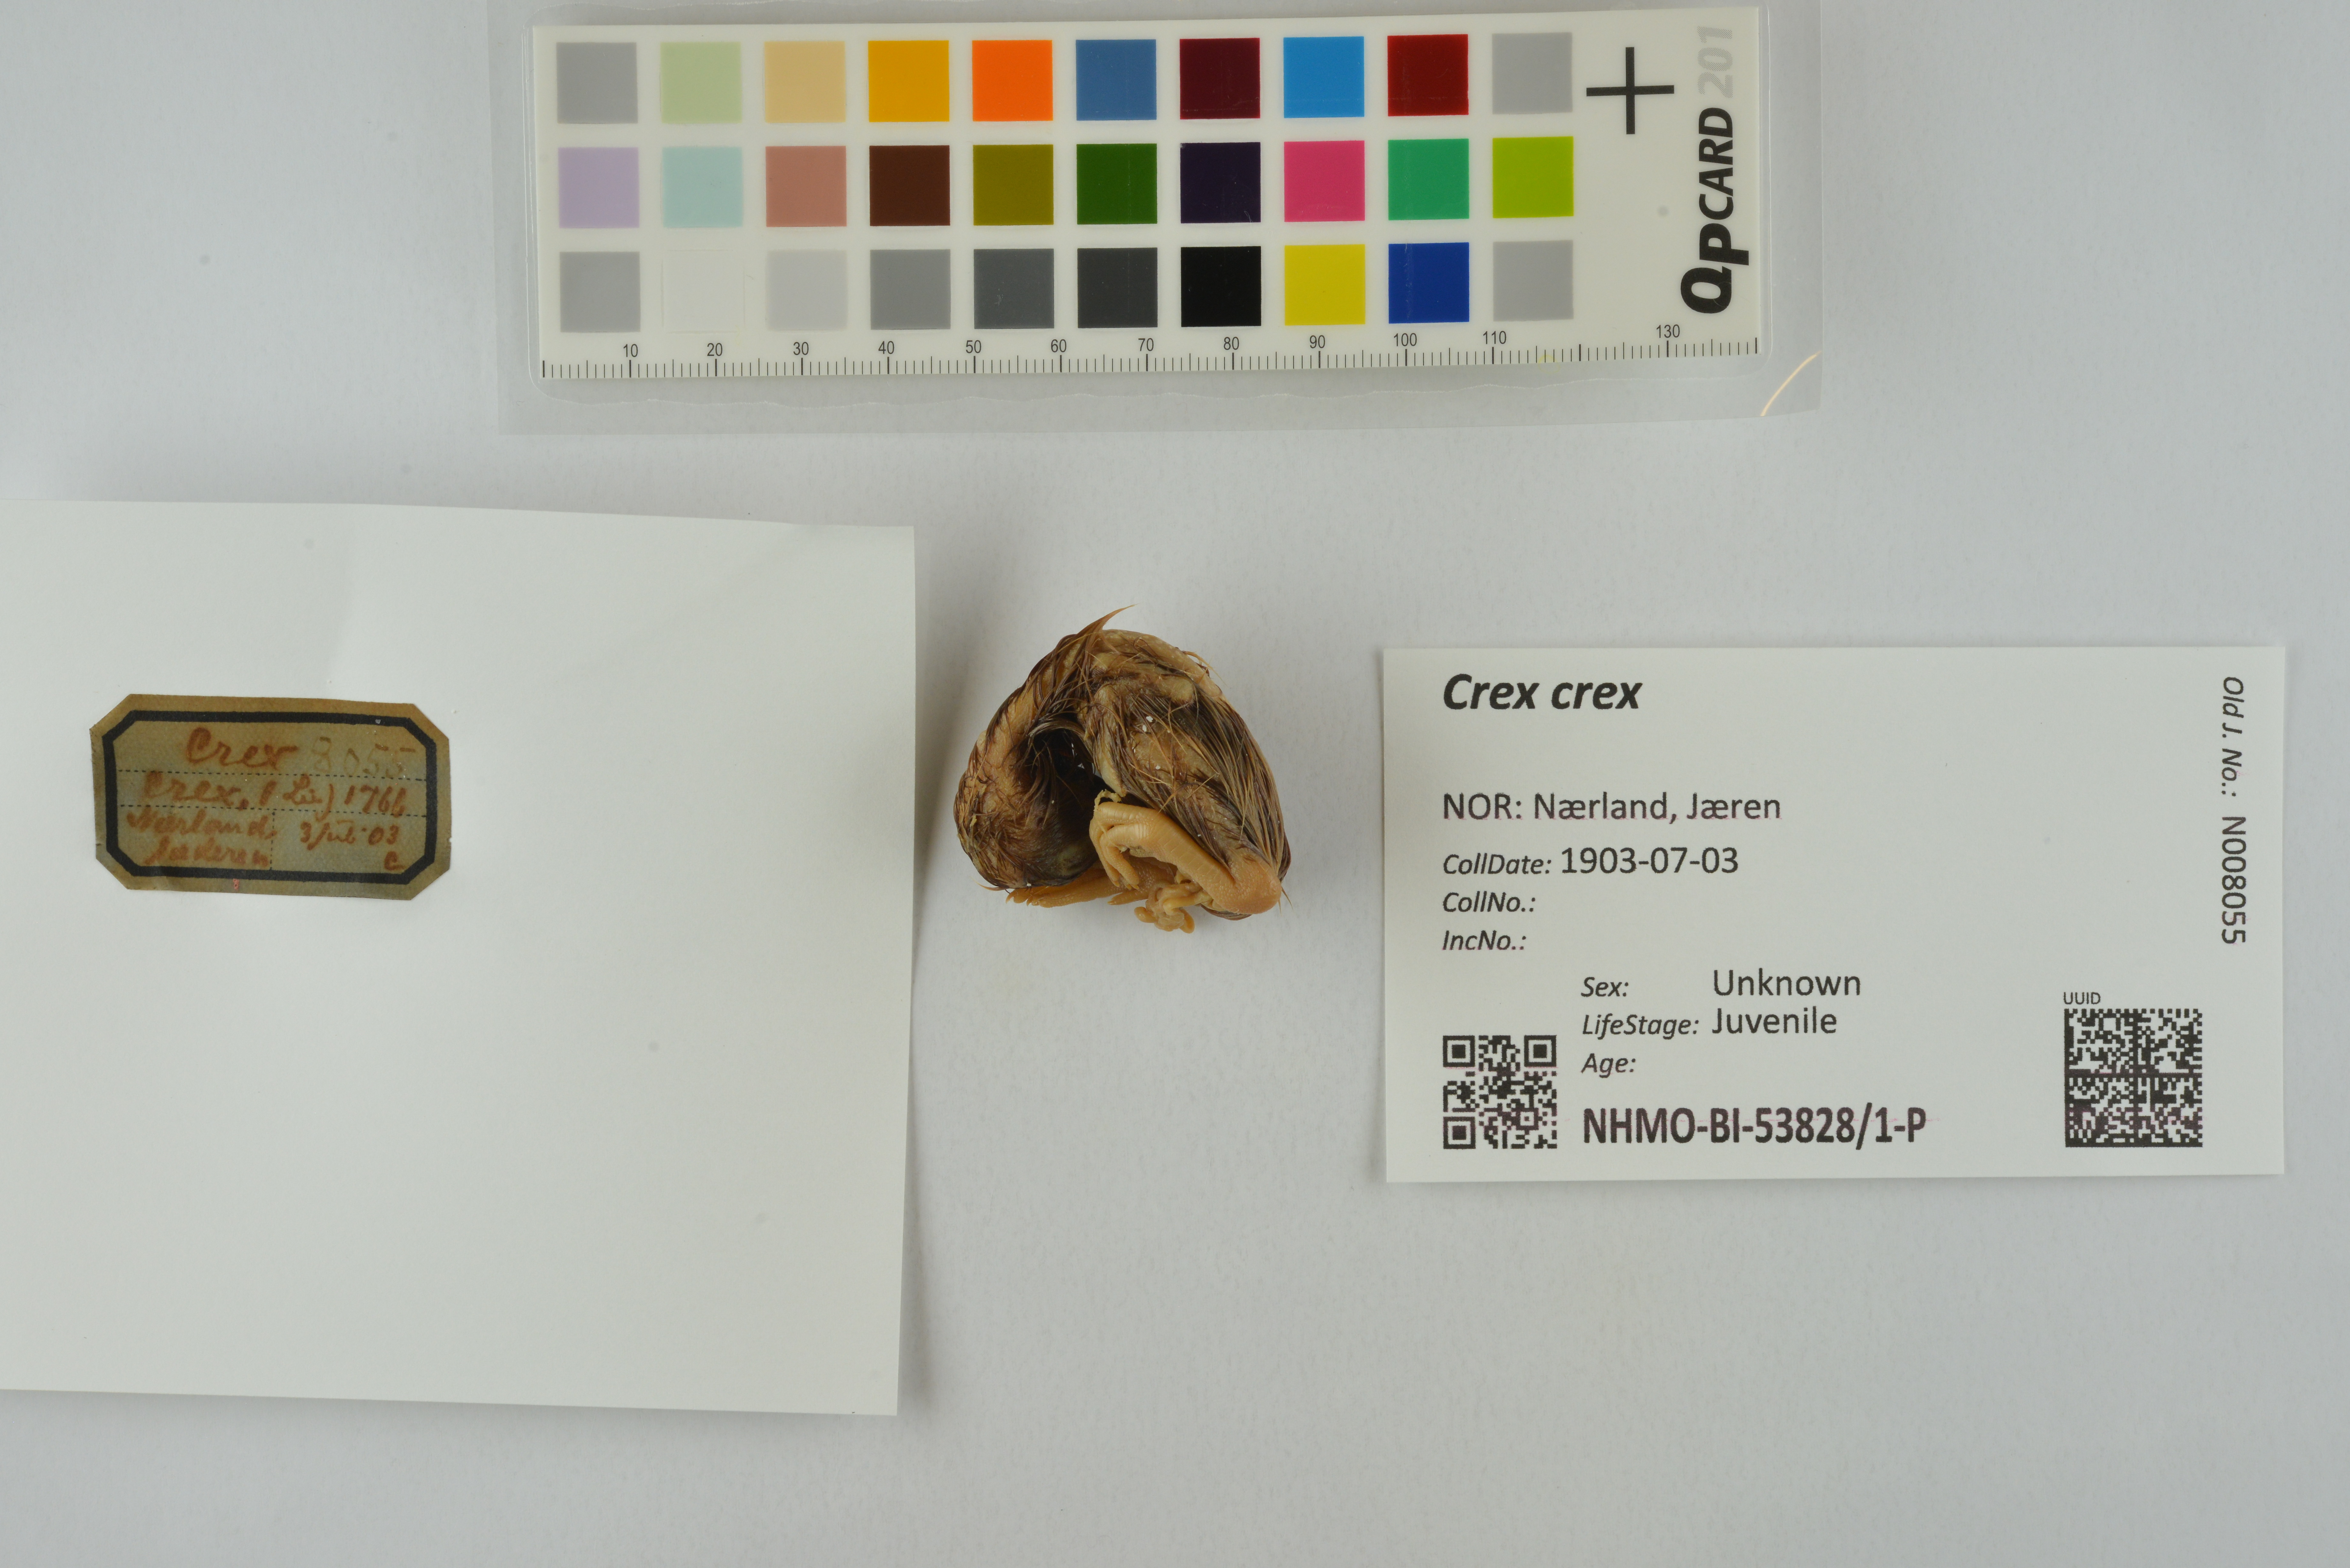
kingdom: Animalia
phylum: Chordata
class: Aves
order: Gruiformes
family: Rallidae
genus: Crex
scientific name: Crex crex
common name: Corn crake
